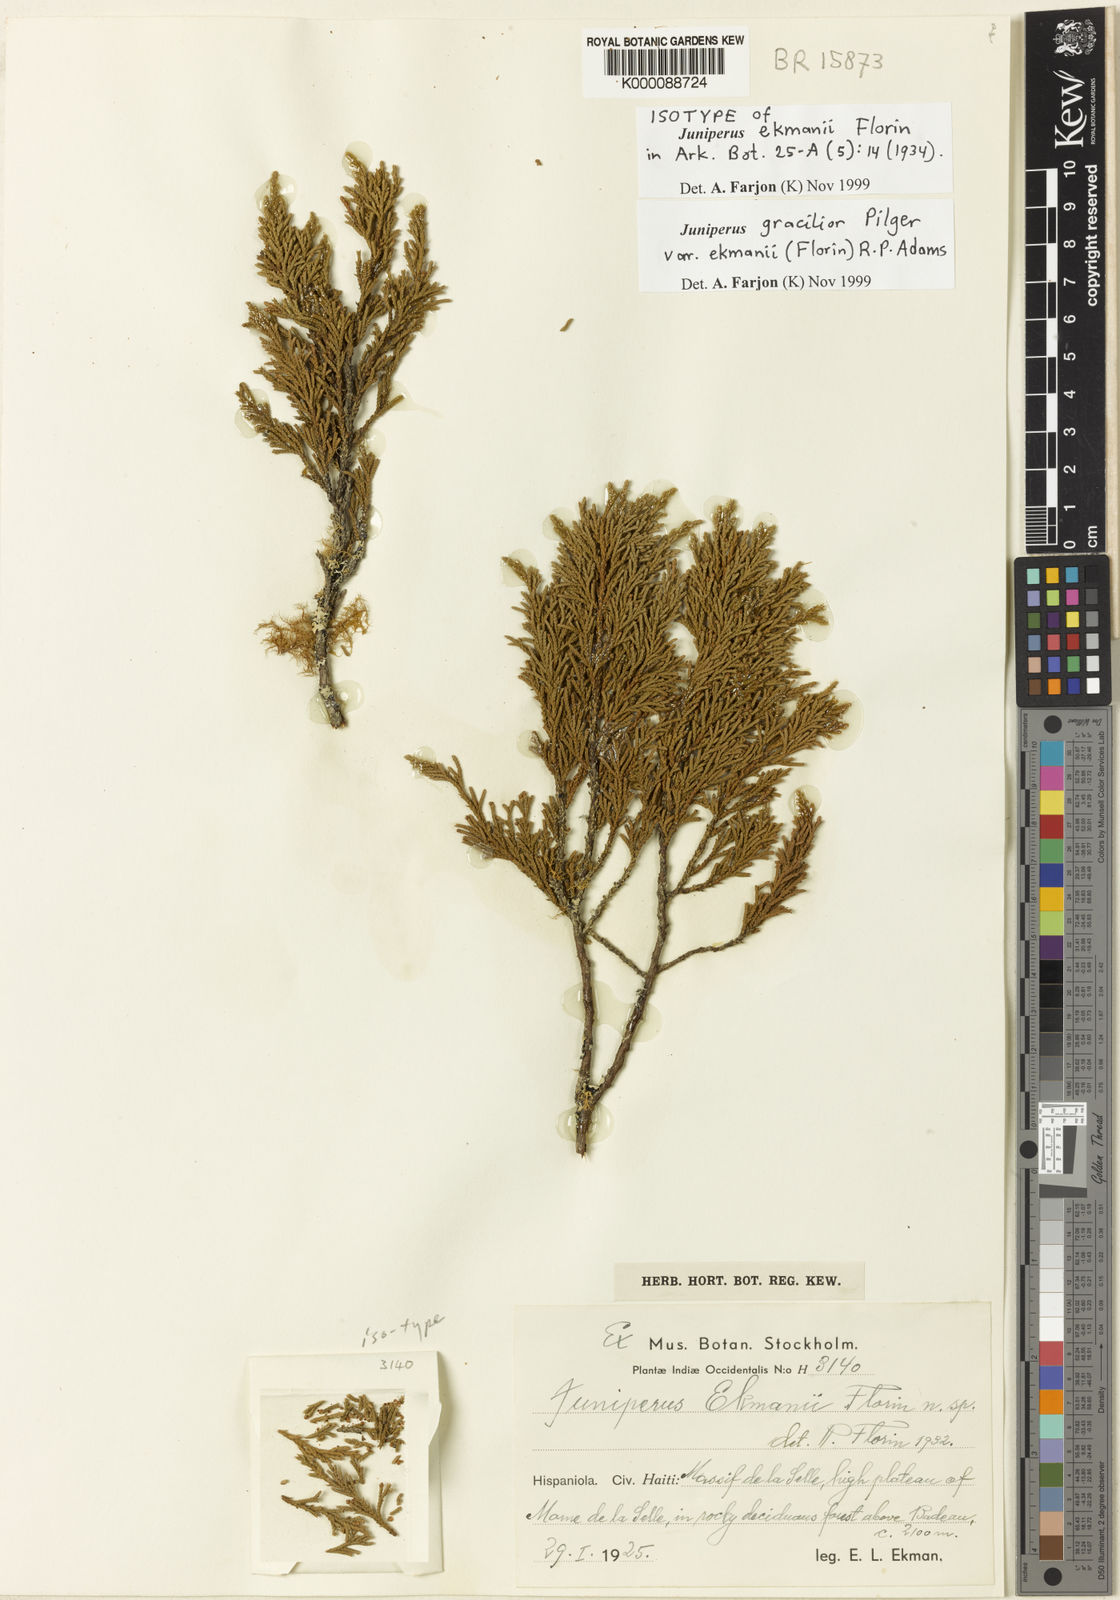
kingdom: Plantae
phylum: Tracheophyta
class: Pinopsida
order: Pinales
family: Cupressaceae
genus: Juniperus
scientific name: Juniperus gracilior
